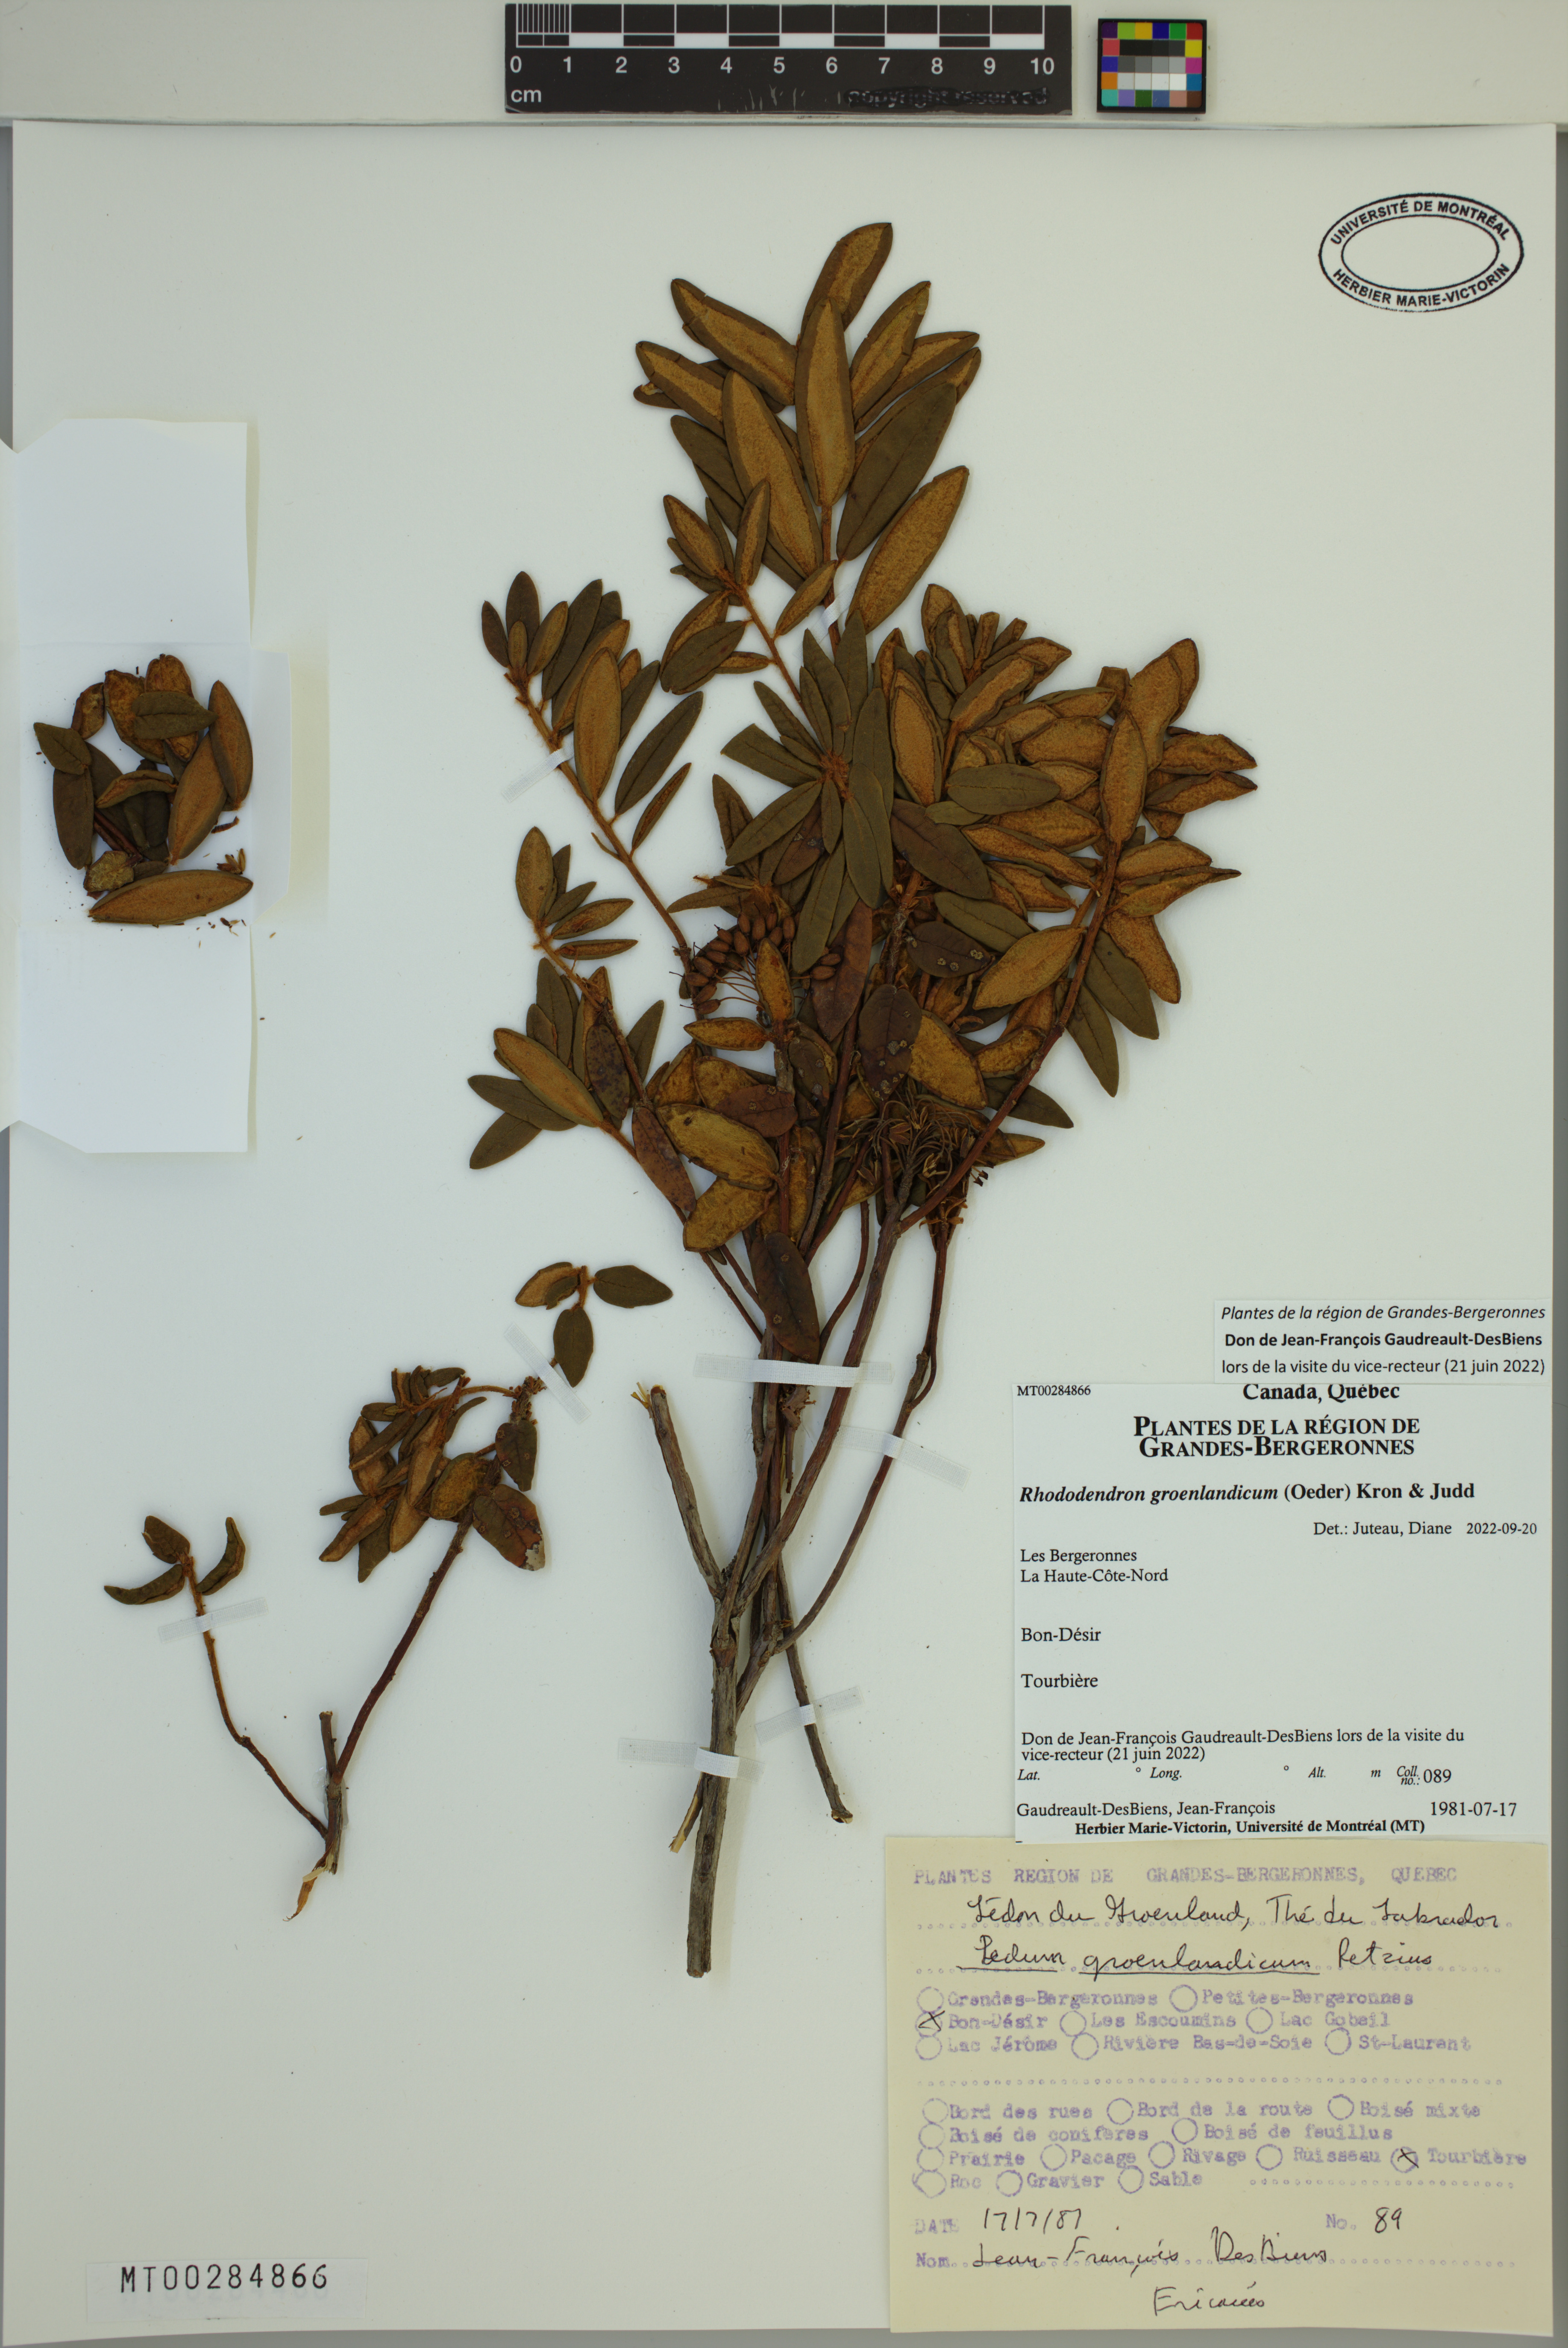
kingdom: Plantae
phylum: Tracheophyta
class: Magnoliopsida
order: Ericales
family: Ericaceae
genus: Rhododendron
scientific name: Rhododendron groenlandicum
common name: Bog labrador tea
